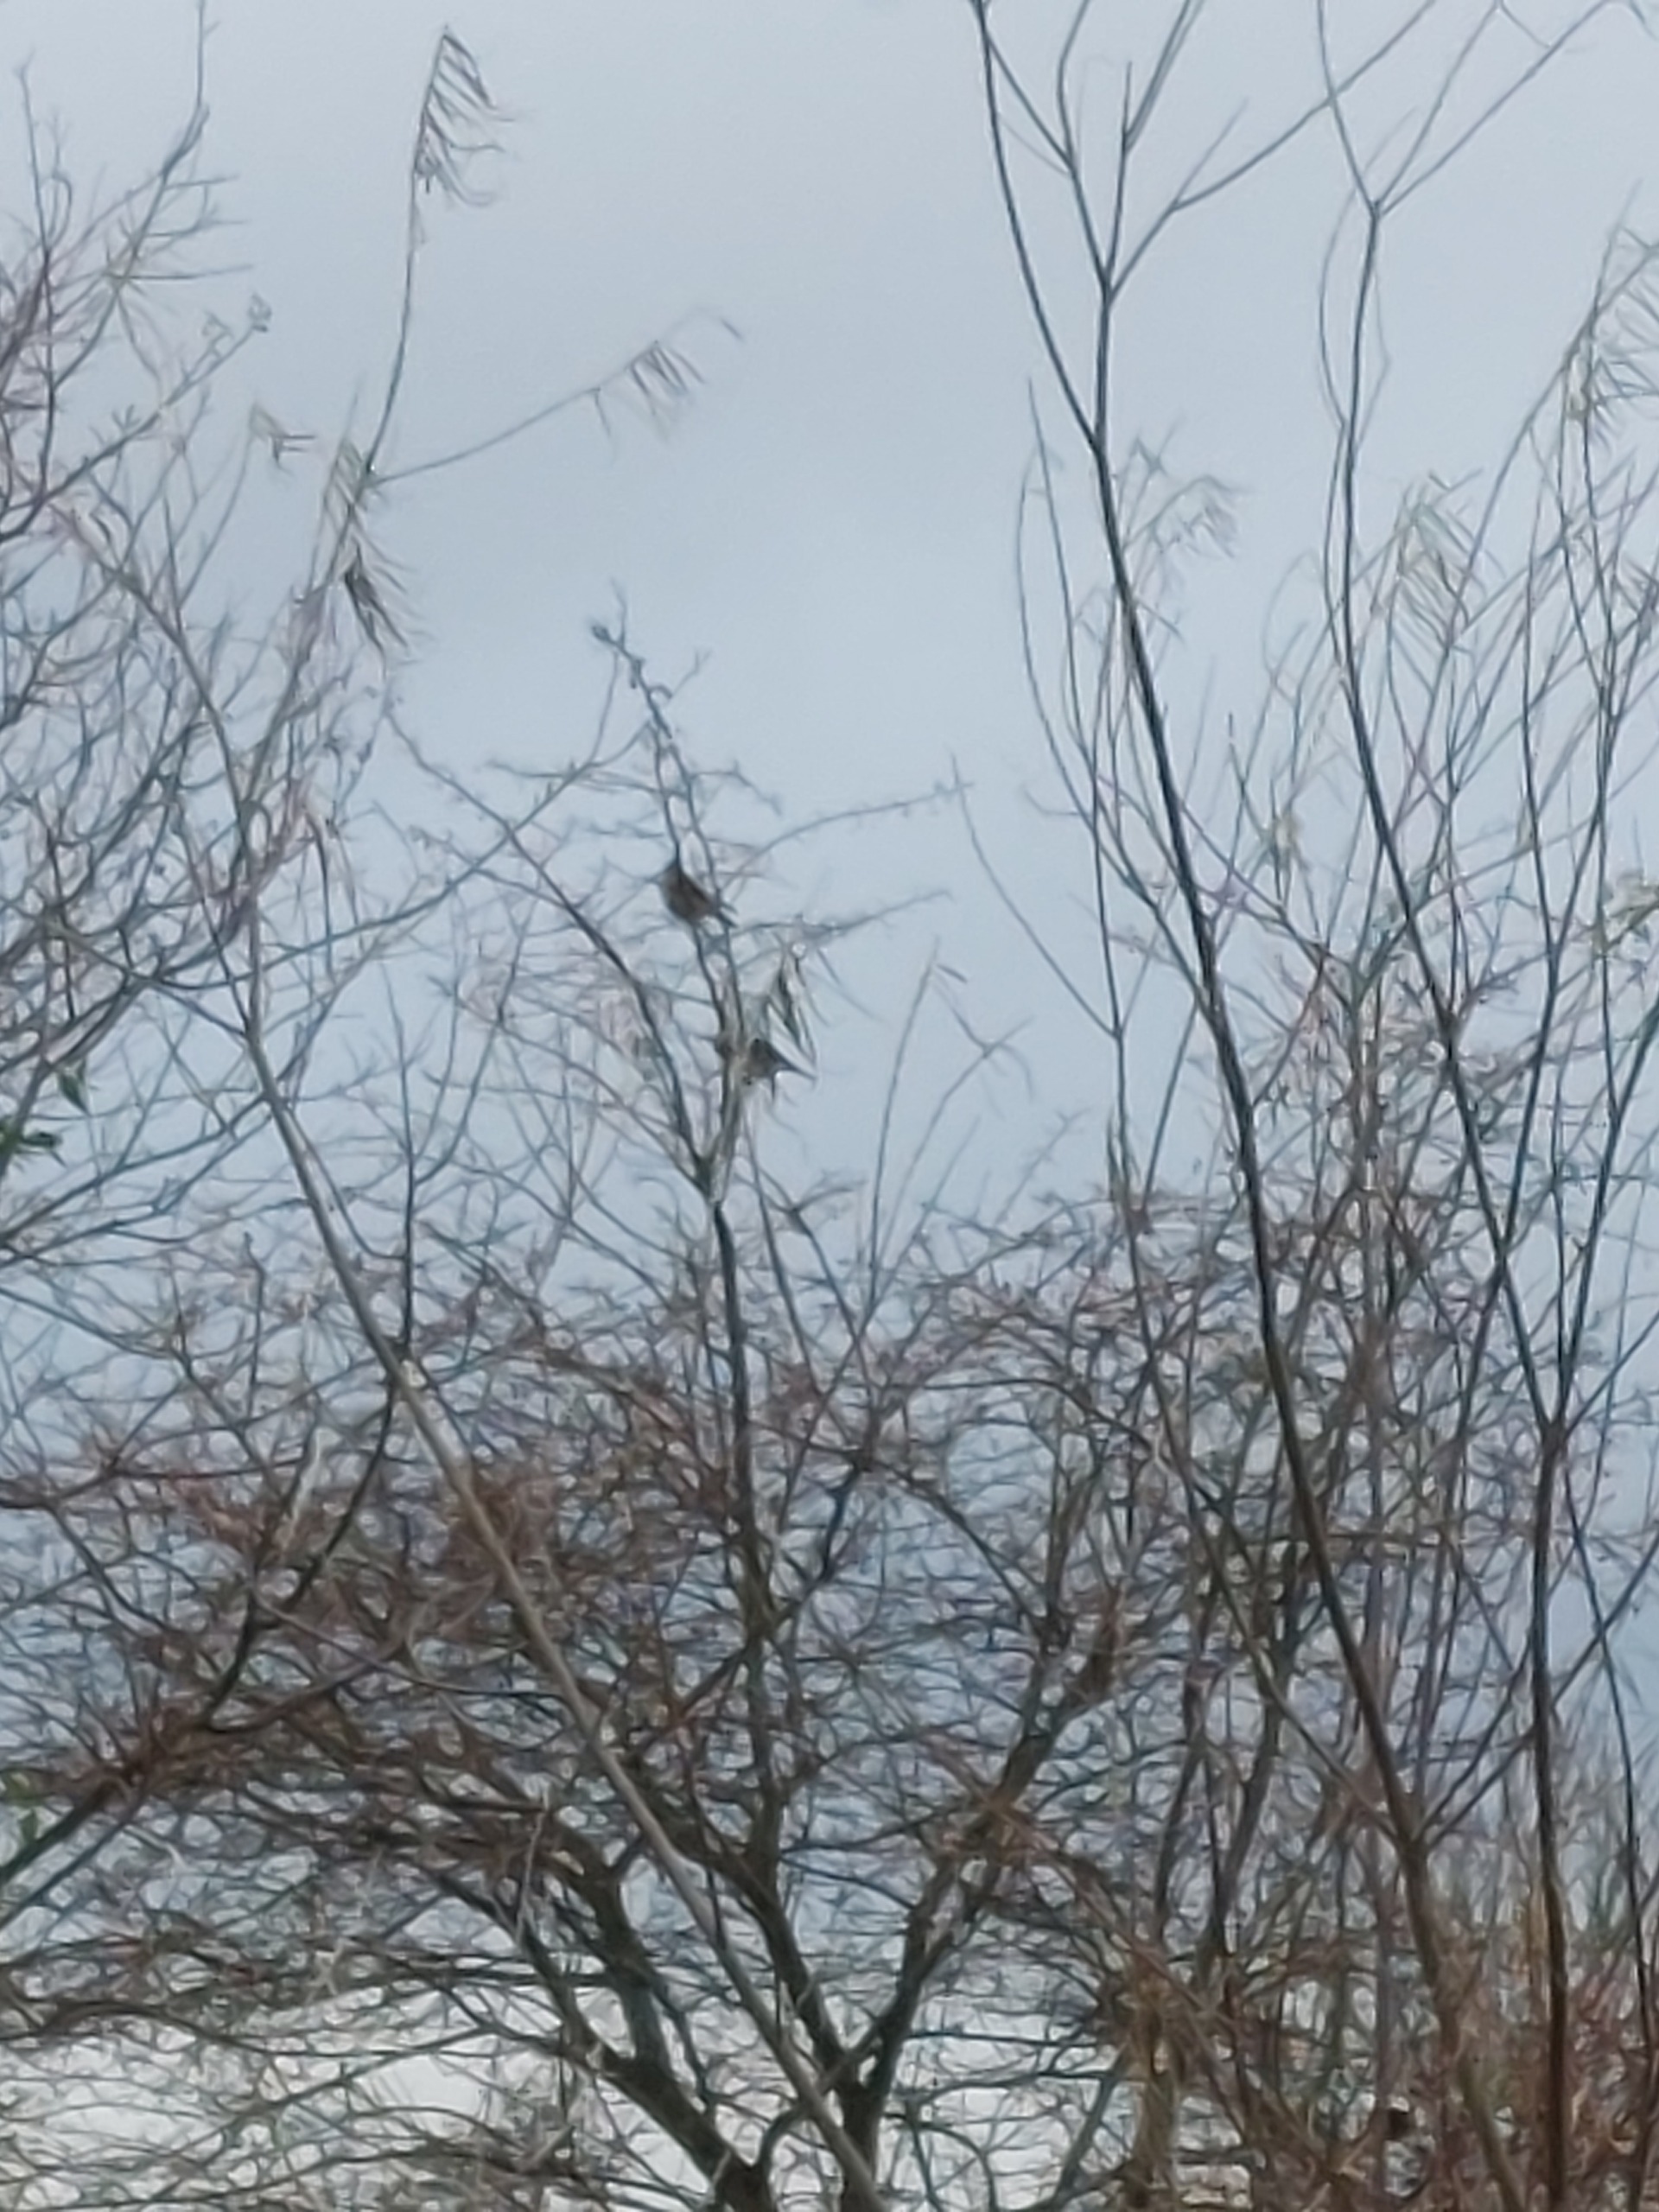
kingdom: Animalia
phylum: Chordata
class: Aves
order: Passeriformes
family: Turdidae
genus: Turdus
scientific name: Turdus pilaris
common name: Sjagger
